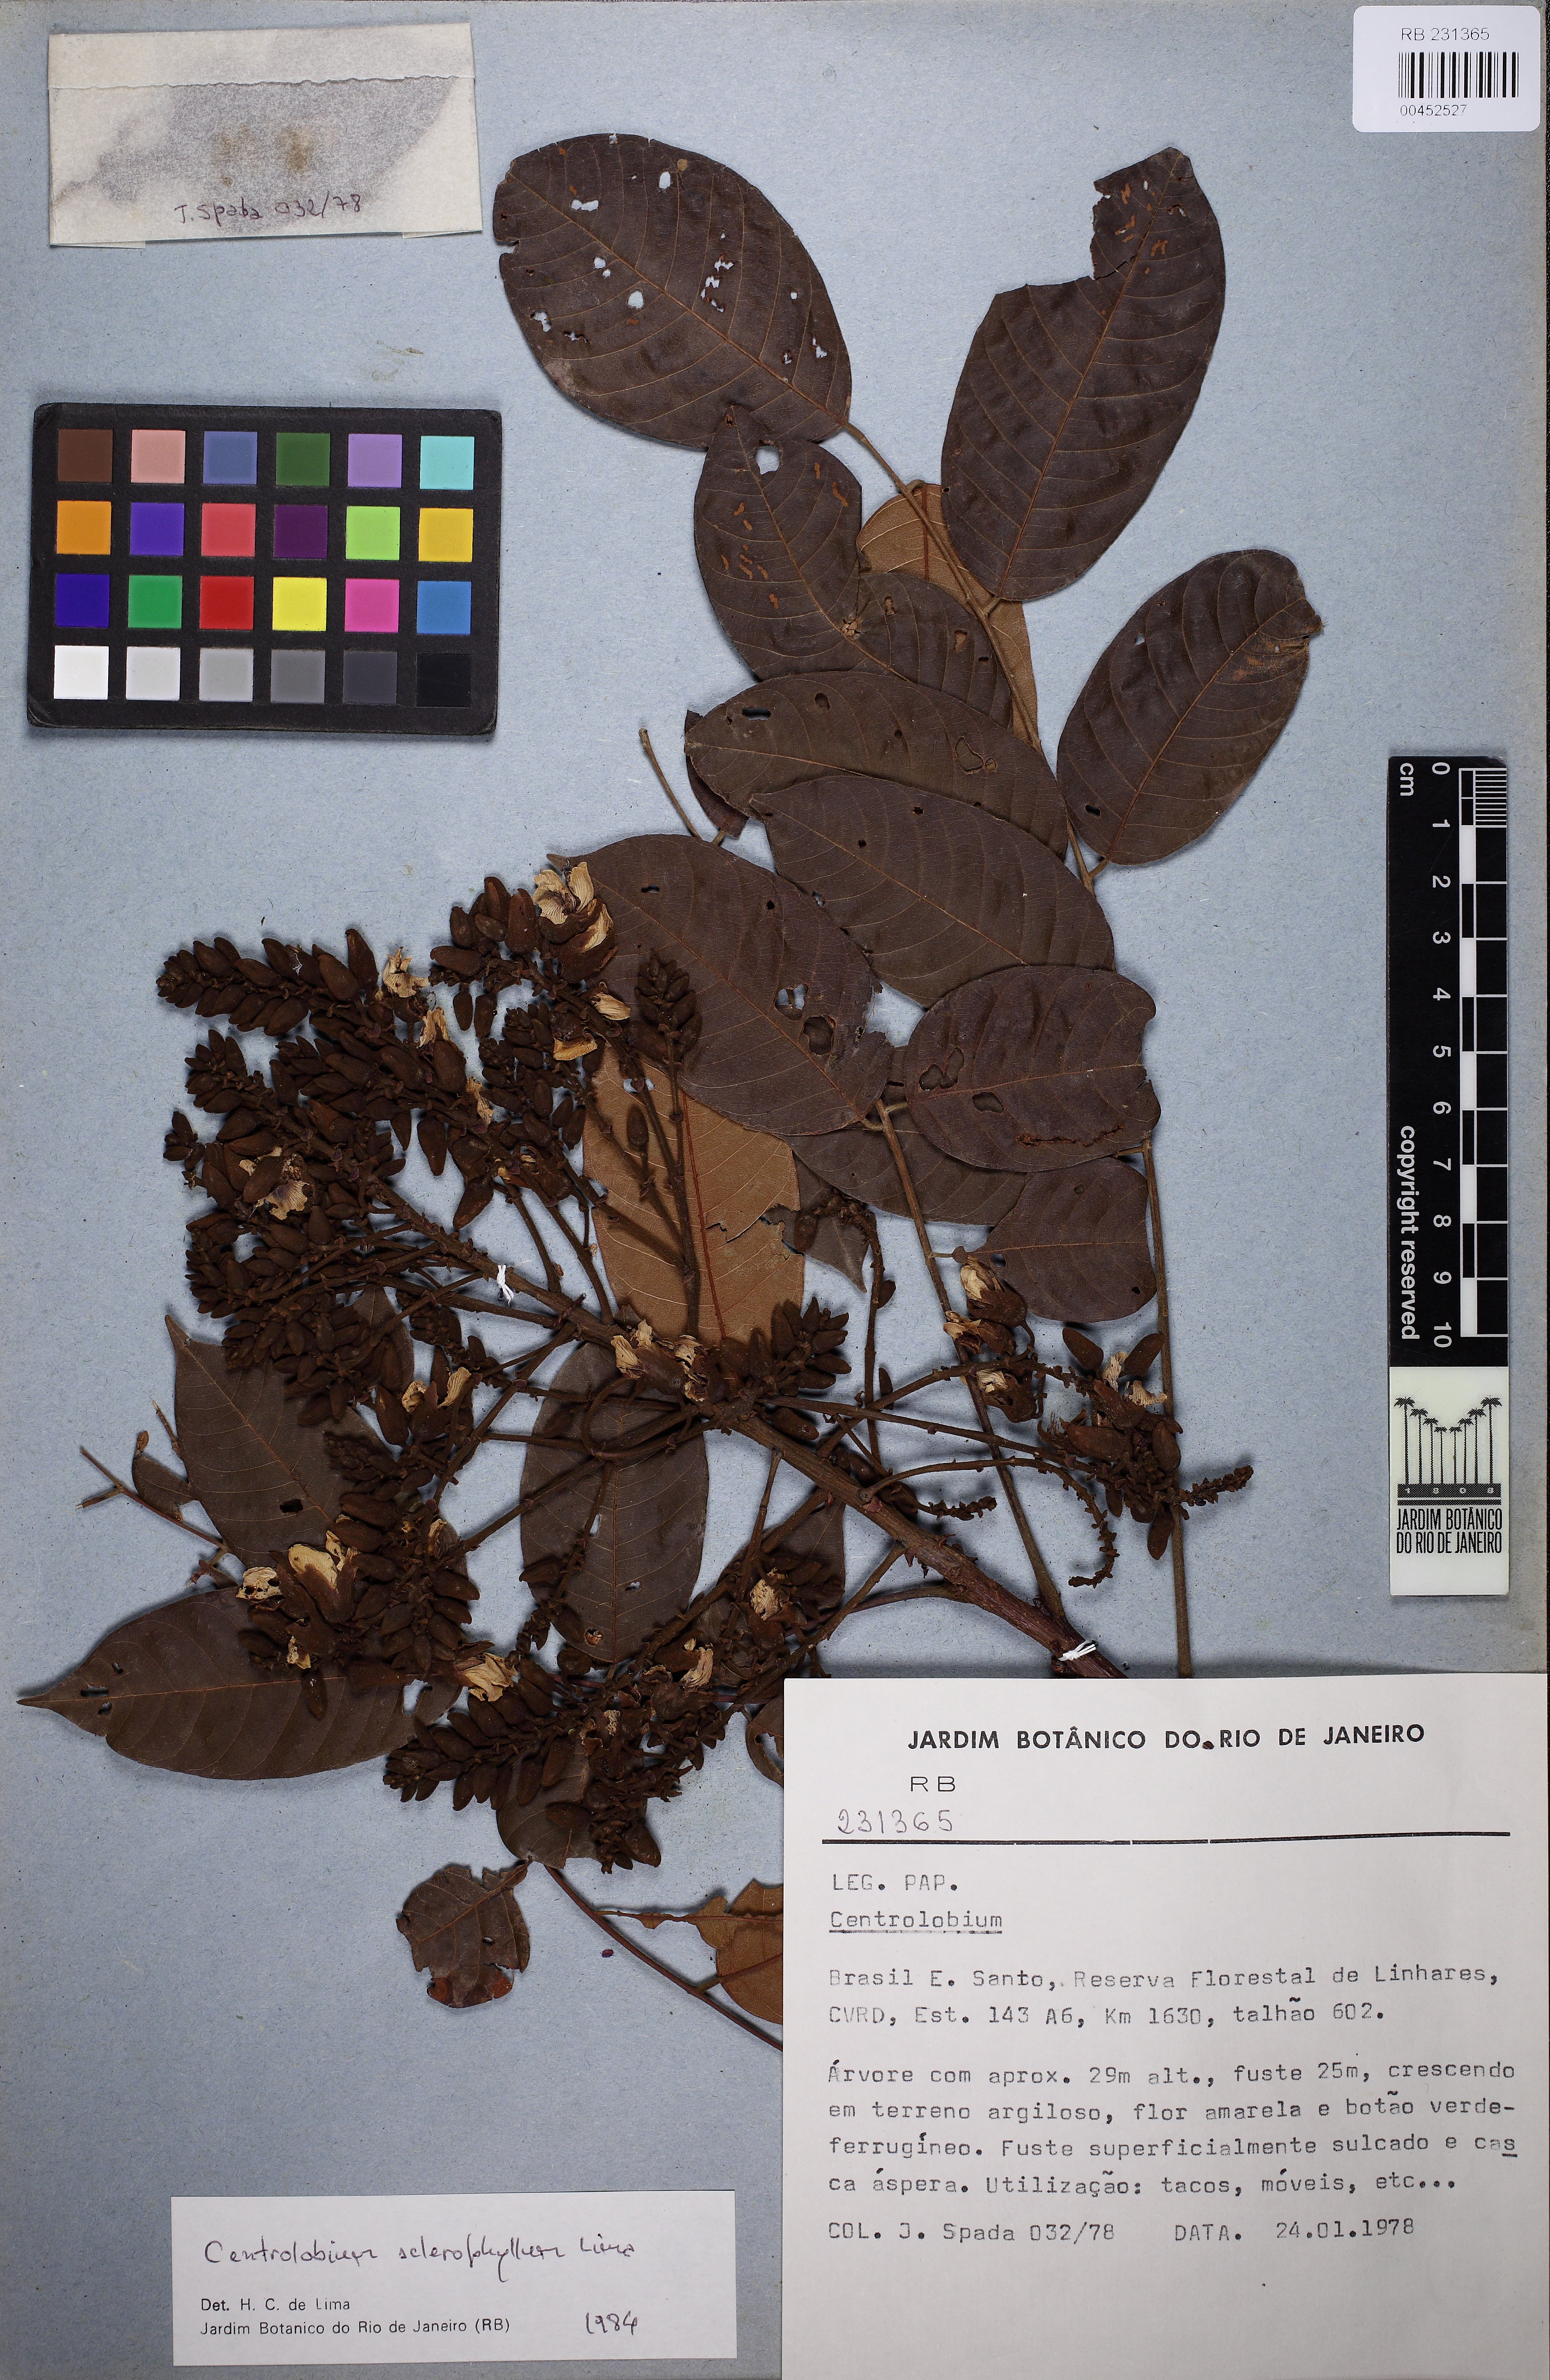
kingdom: Plantae
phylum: Tracheophyta
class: Magnoliopsida
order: Fabales
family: Fabaceae
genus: Centrolobium
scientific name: Centrolobium sclerophyllum
